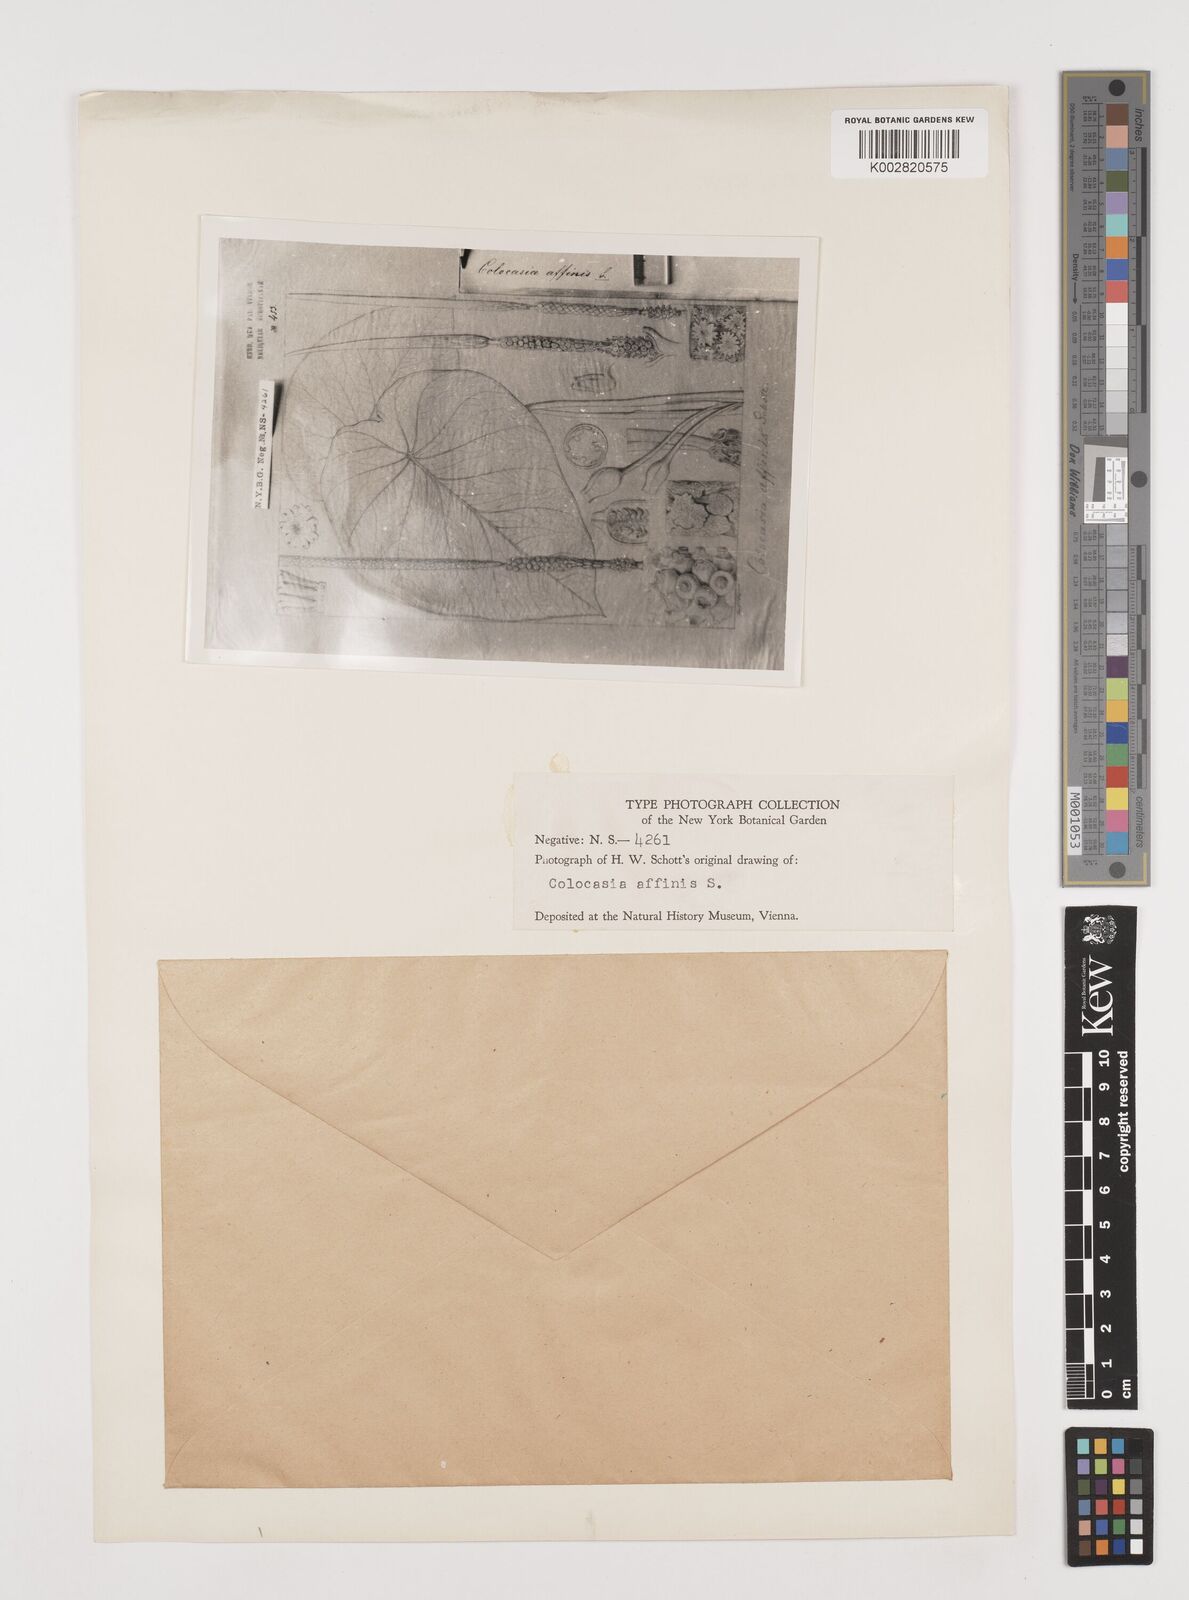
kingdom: Plantae
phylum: Tracheophyta
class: Liliopsida
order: Alismatales
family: Araceae
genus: Colocasia
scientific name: Colocasia affinis
